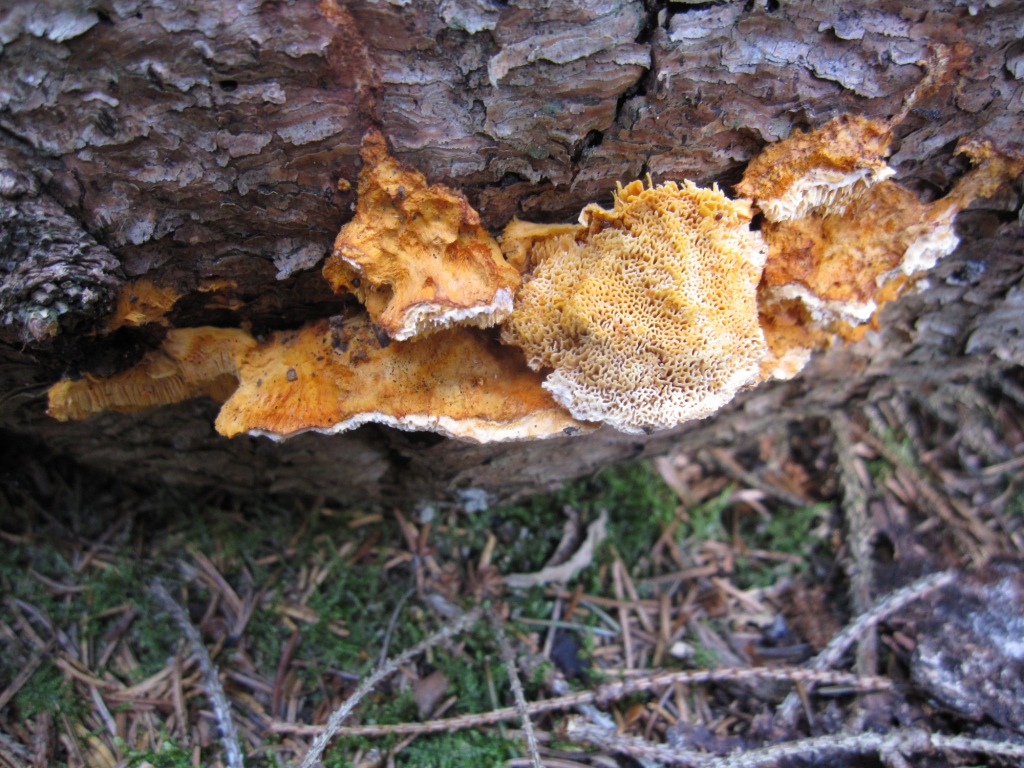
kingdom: Fungi
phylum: Basidiomycota
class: Agaricomycetes
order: Polyporales
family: Pycnoporellaceae
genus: Pycnoporellus
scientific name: Pycnoporellus fulgens
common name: flammeporesvamp
